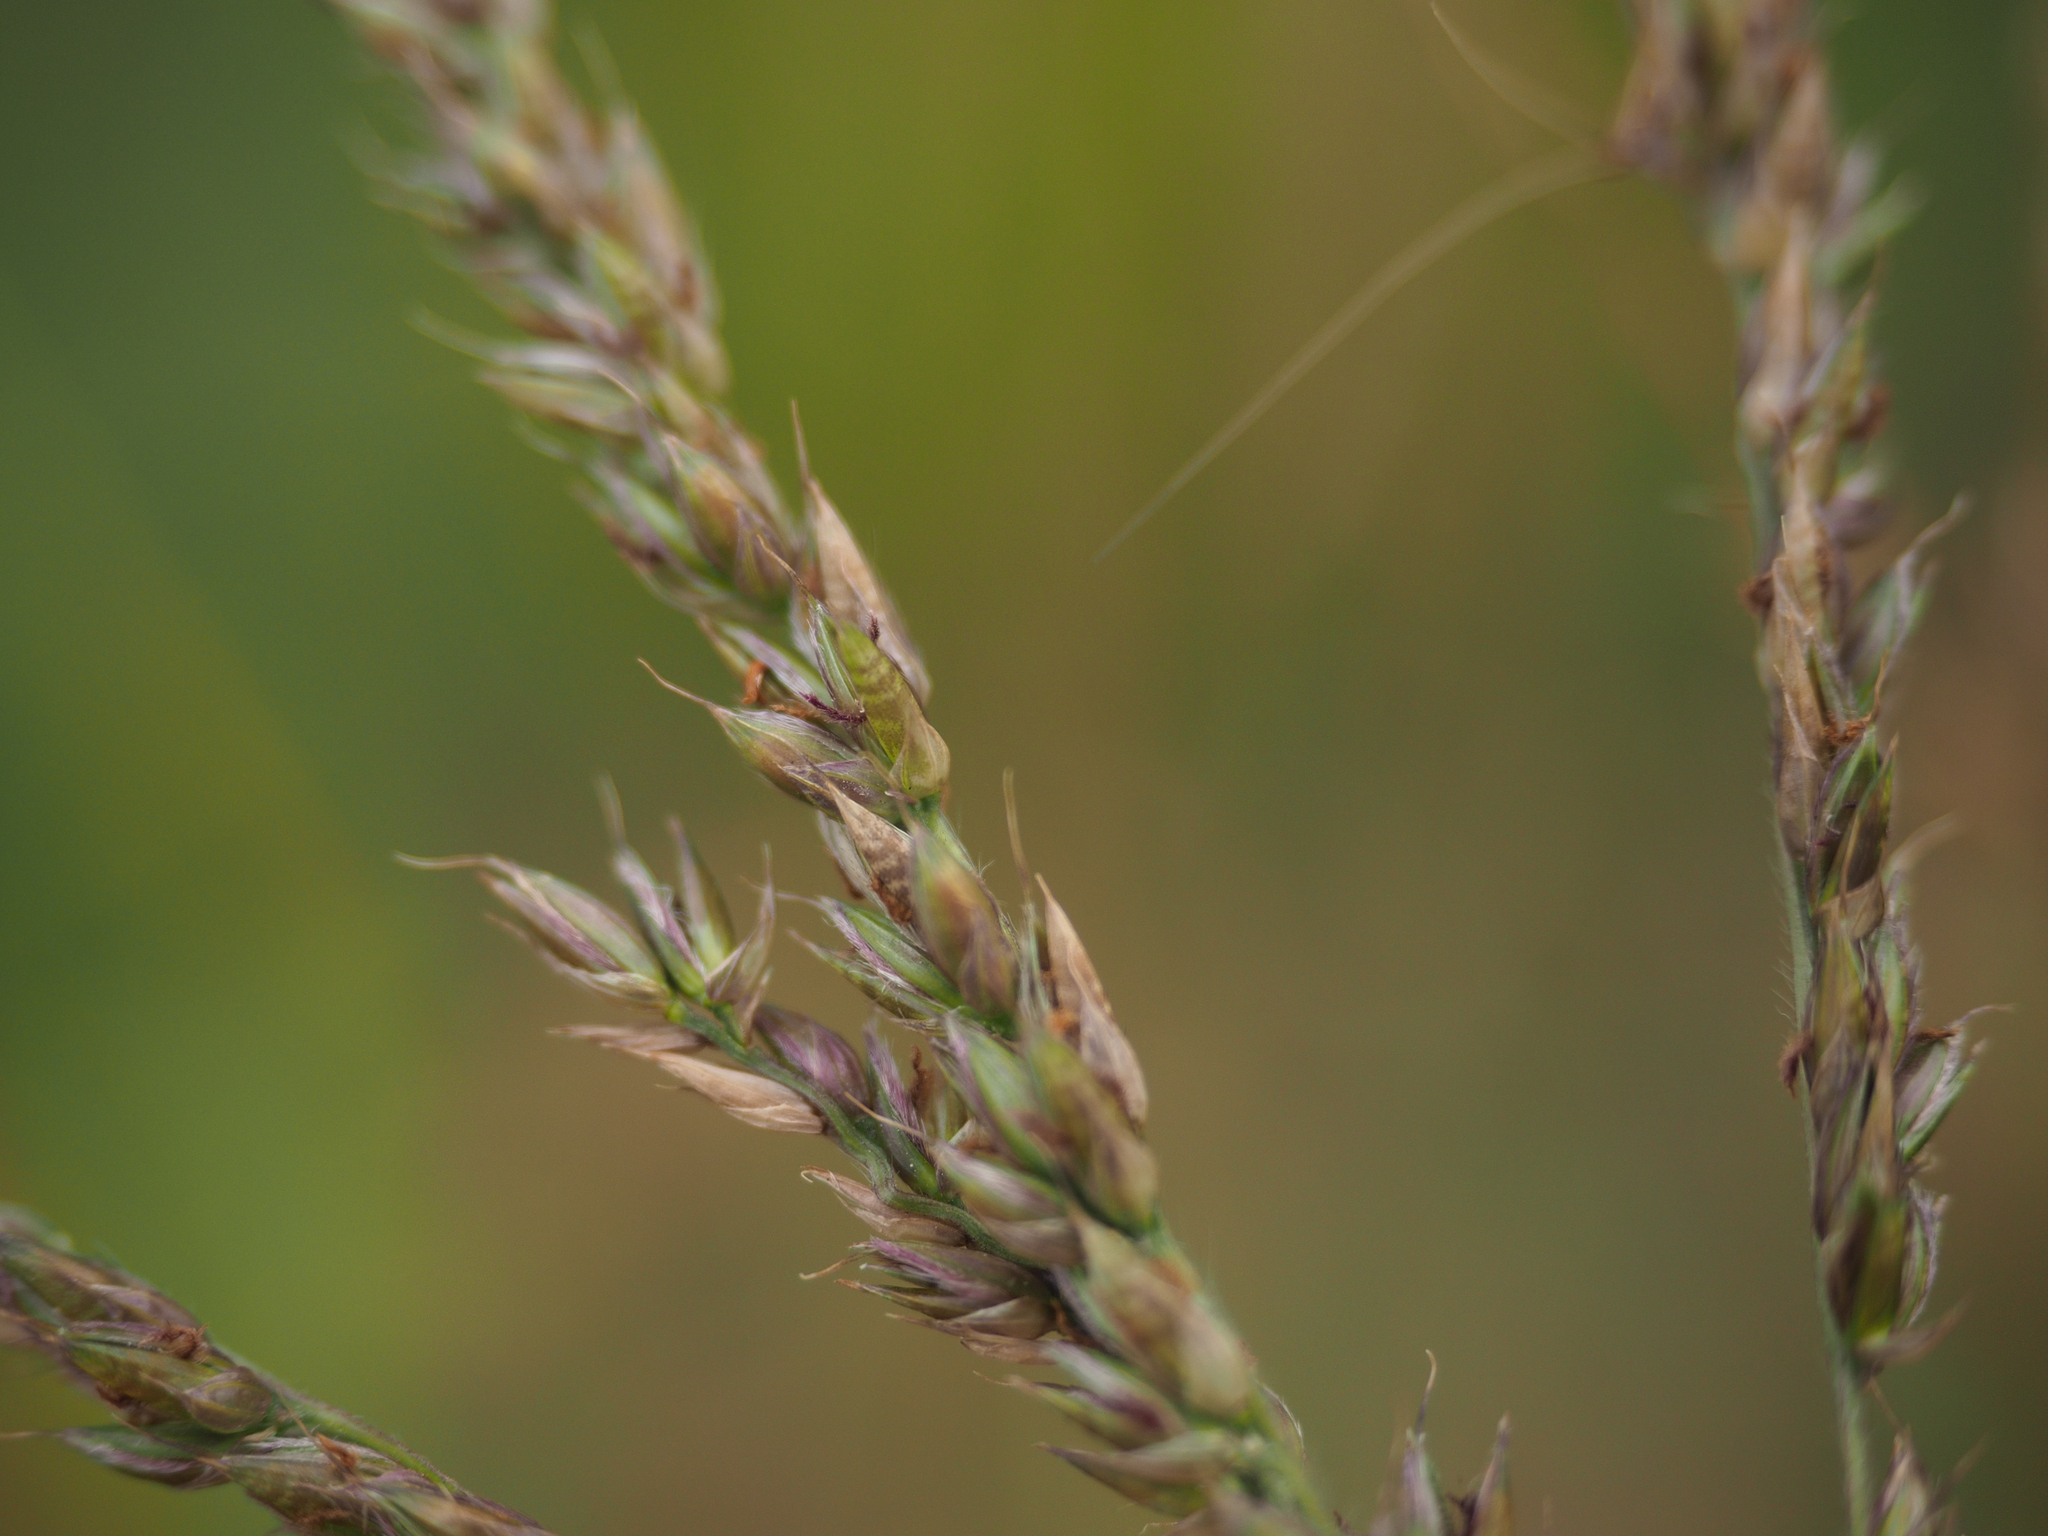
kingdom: Plantae
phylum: Tracheophyta
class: Liliopsida
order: Poales
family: Poaceae
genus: Alloteropsis
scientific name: Alloteropsis semialata
